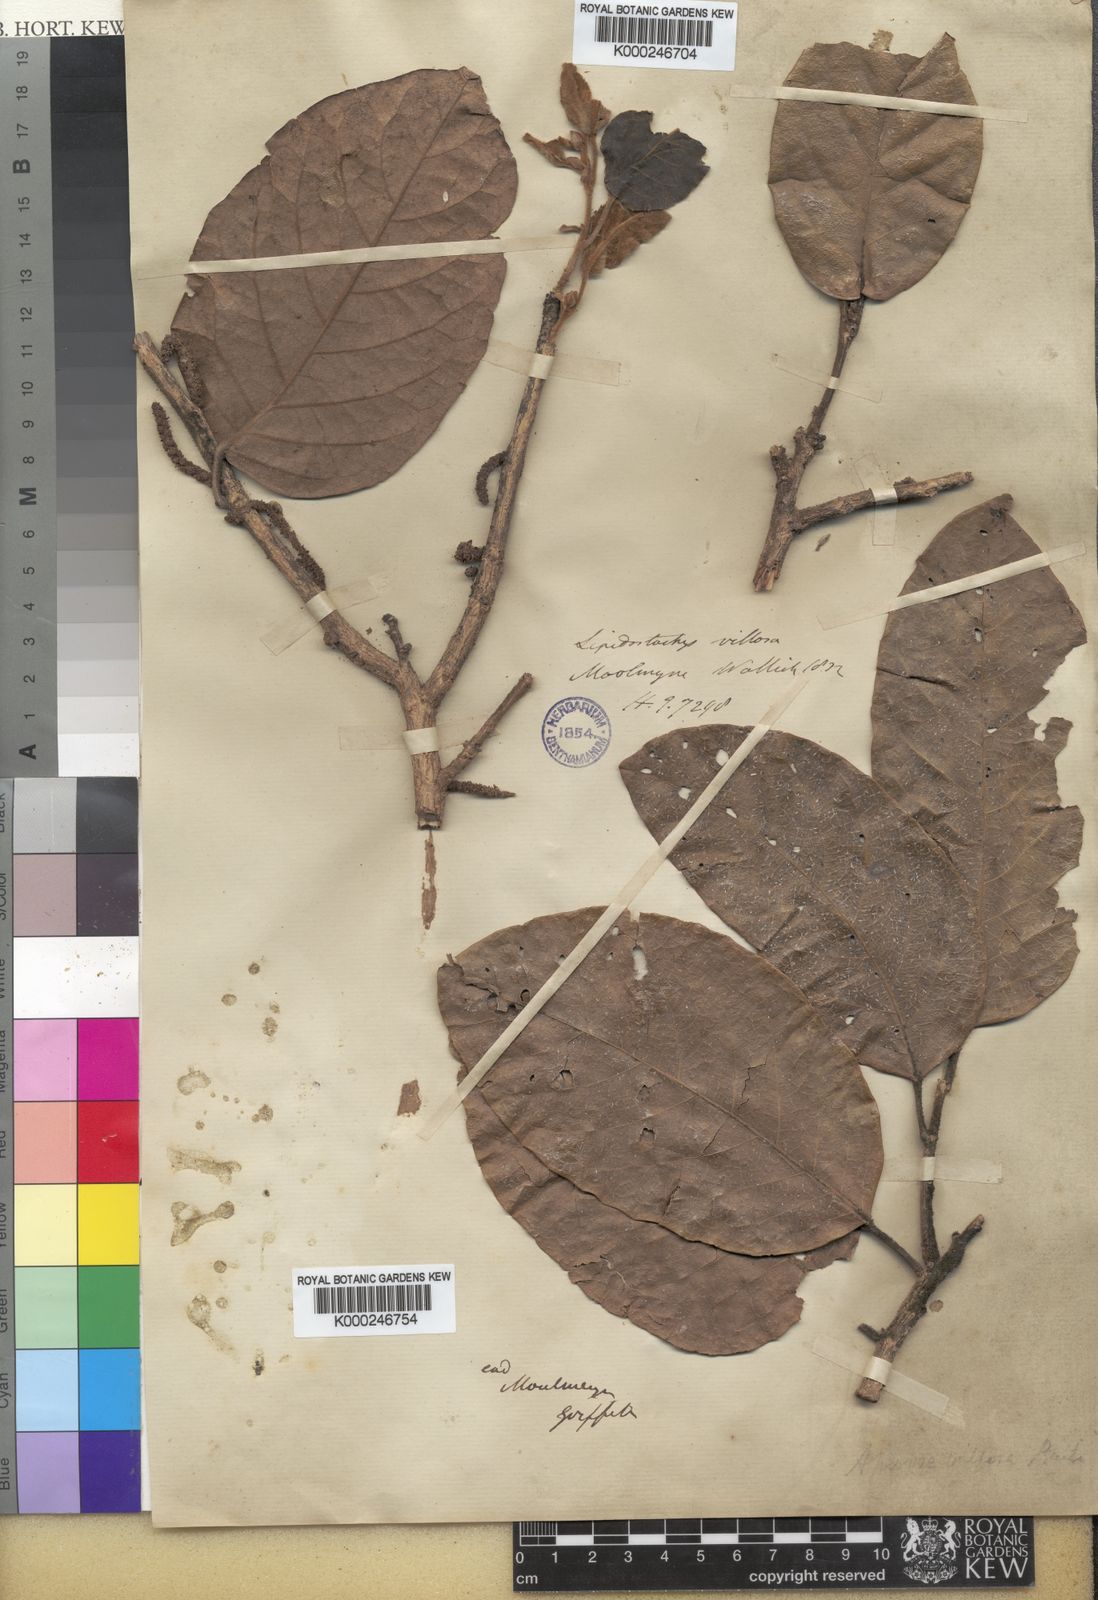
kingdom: Plantae
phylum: Tracheophyta
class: Magnoliopsida
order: Malpighiales
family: Phyllanthaceae
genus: Aporosa
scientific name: Aporosa villosa
